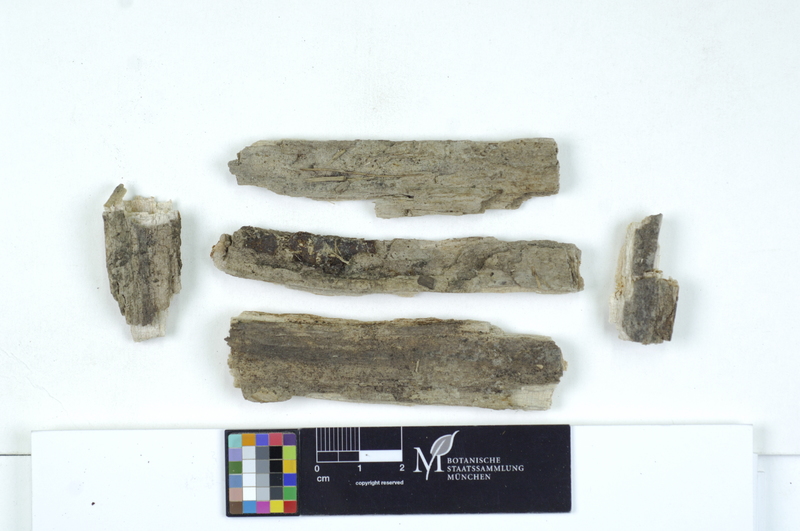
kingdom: Fungi
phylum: Basidiomycota
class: Agaricomycetes
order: Cantharellales
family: Tulasnellaceae
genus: Tulasnella
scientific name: Tulasnella eichleriana
